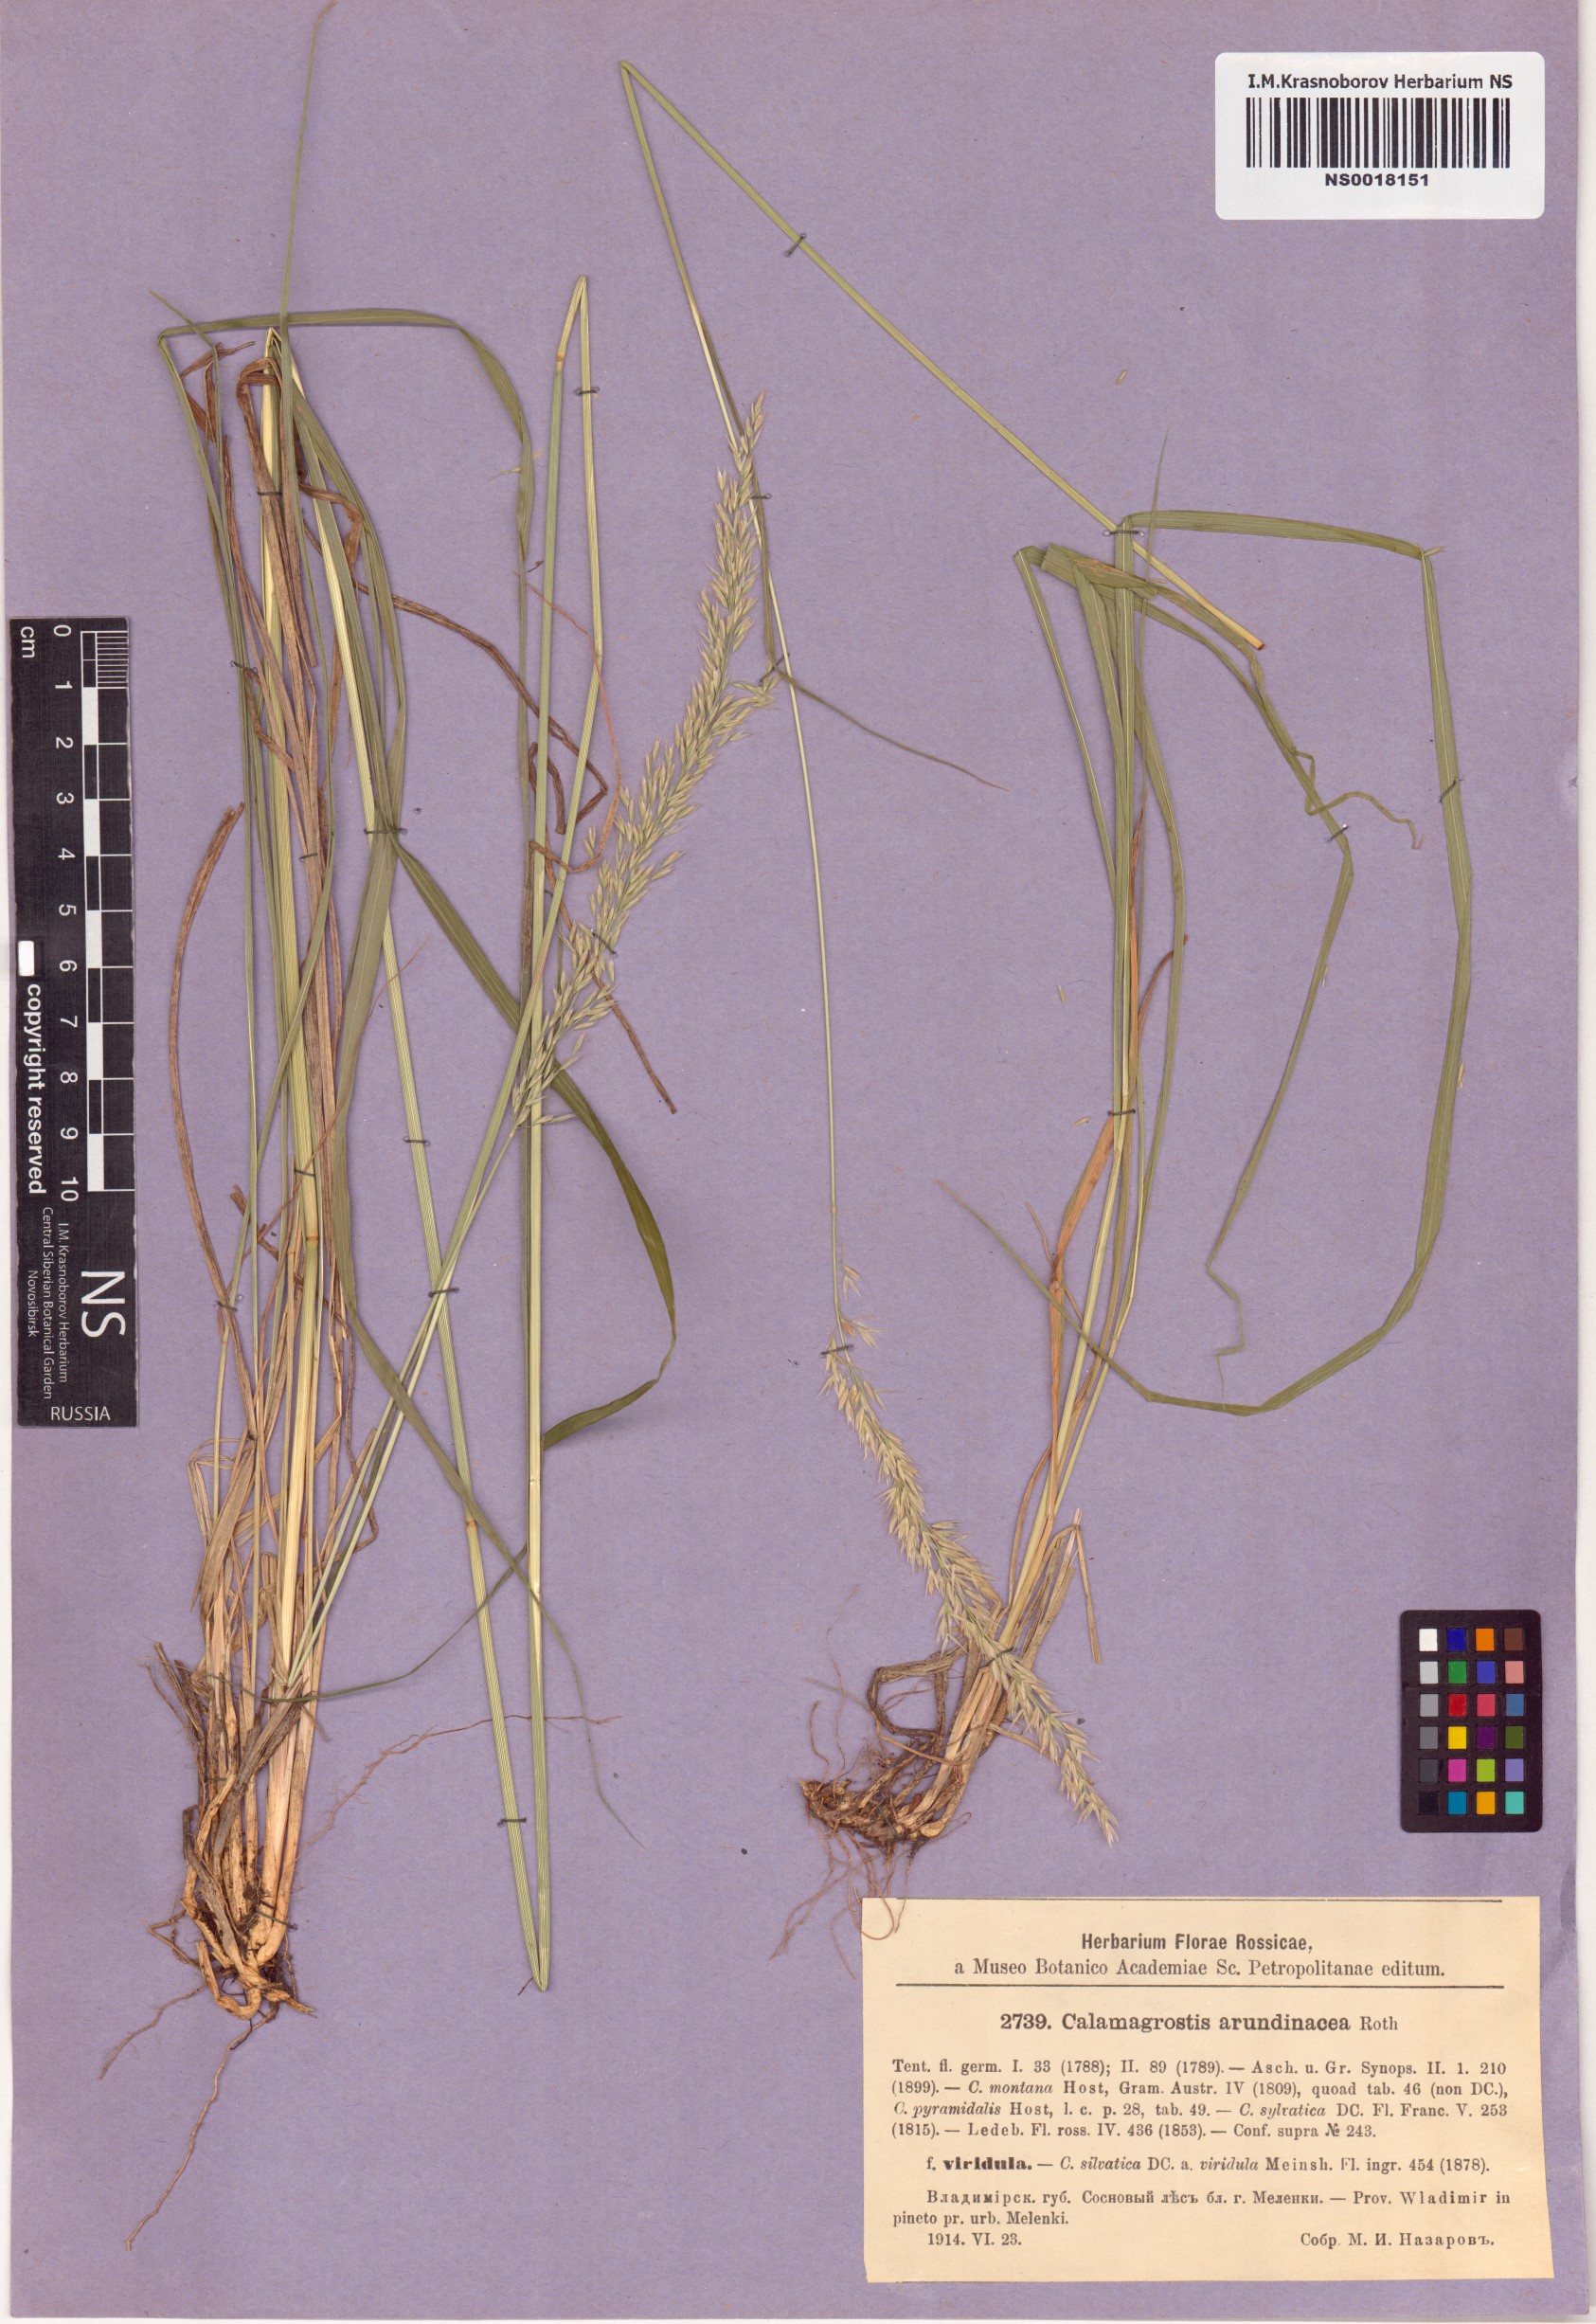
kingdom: Plantae
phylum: Tracheophyta
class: Liliopsida
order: Poales
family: Poaceae
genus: Calamagrostis
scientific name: Calamagrostis arundinacea
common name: Metskastik
